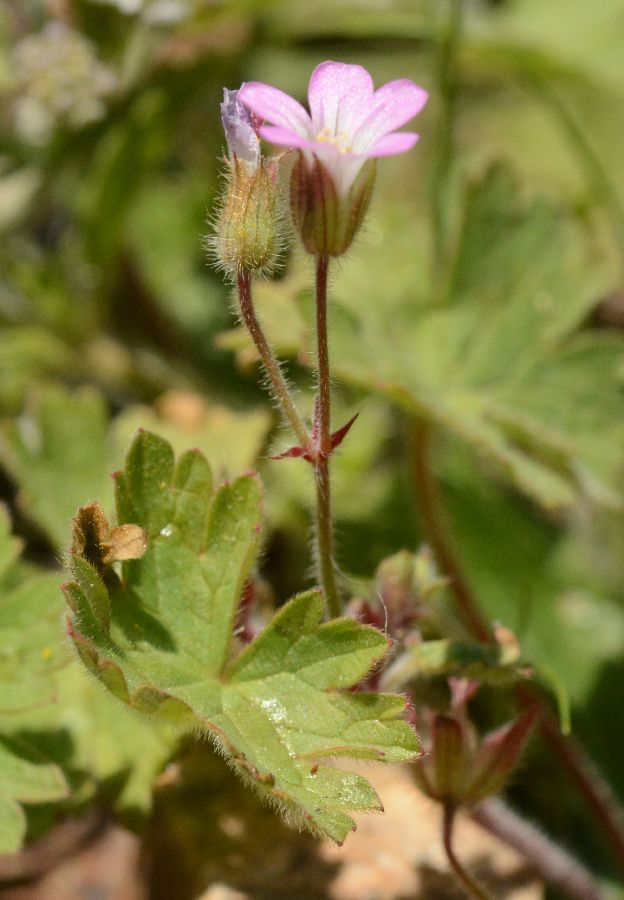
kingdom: Plantae
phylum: Tracheophyta
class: Magnoliopsida
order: Geraniales
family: Geraniaceae
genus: Geranium
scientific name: Geranium rotundifolium
